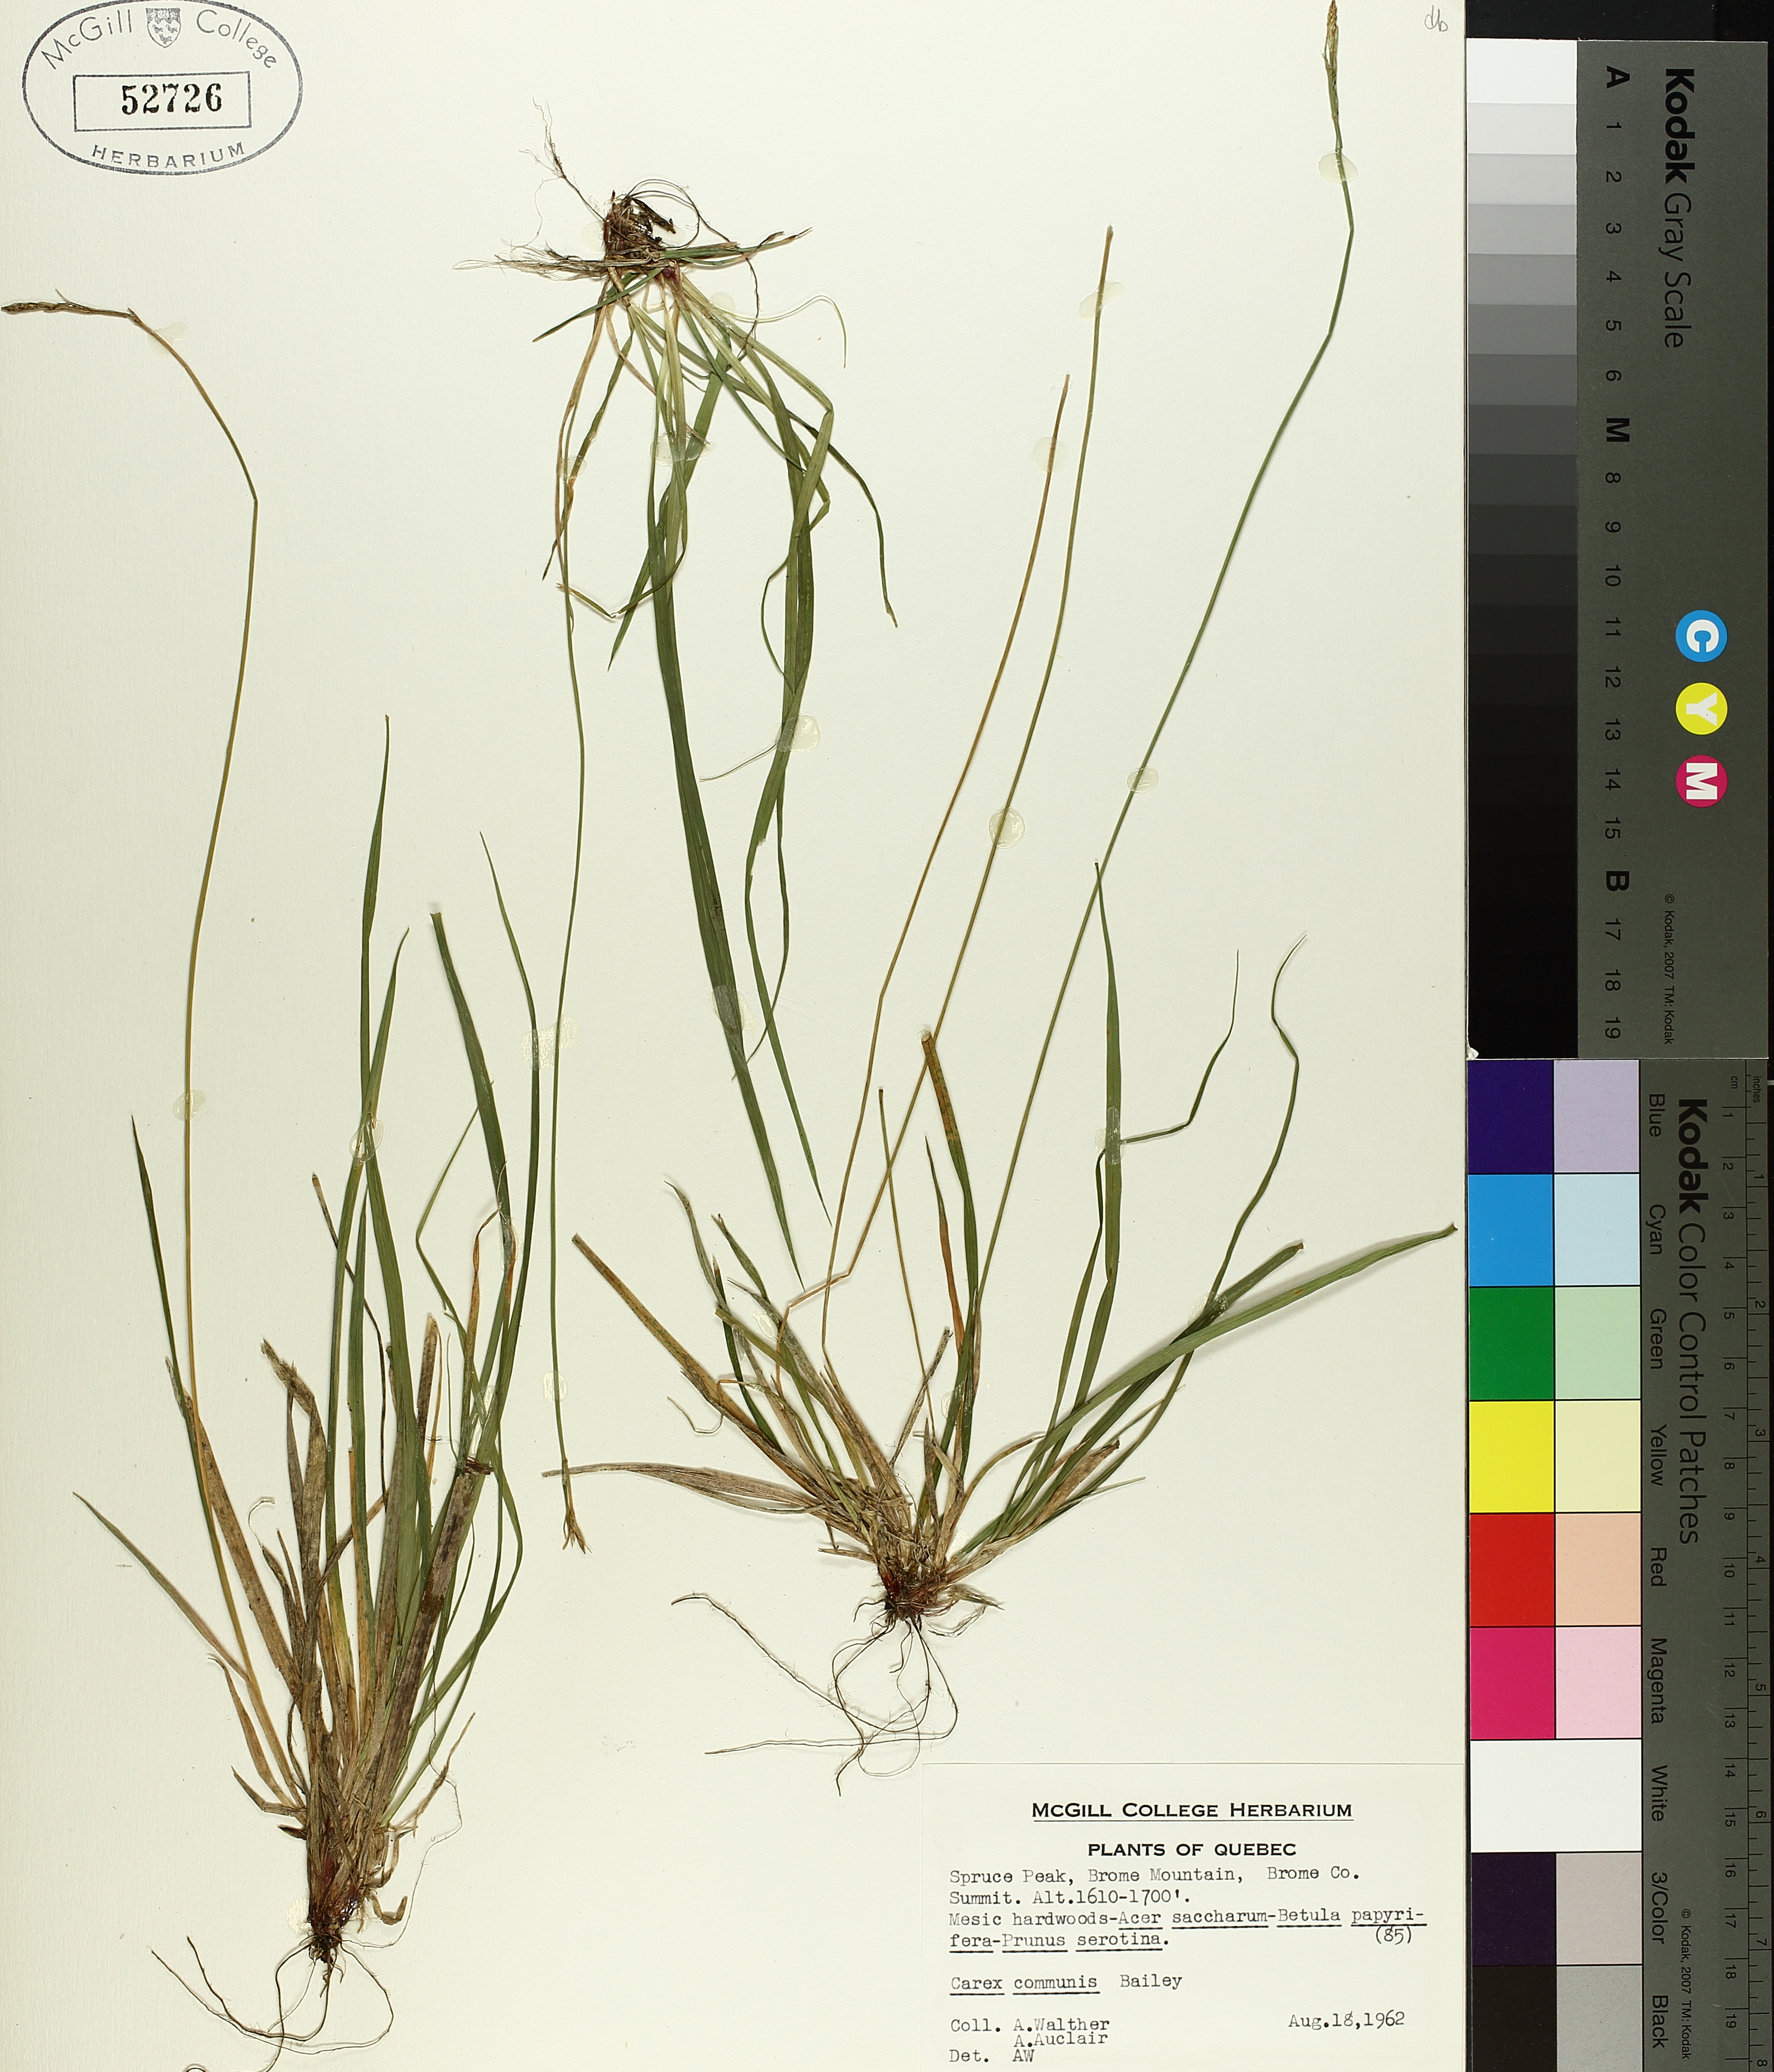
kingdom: Plantae
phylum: Tracheophyta
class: Liliopsida
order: Poales
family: Cyperaceae
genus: Carex
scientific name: Carex communis
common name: Colonial oak sedge
